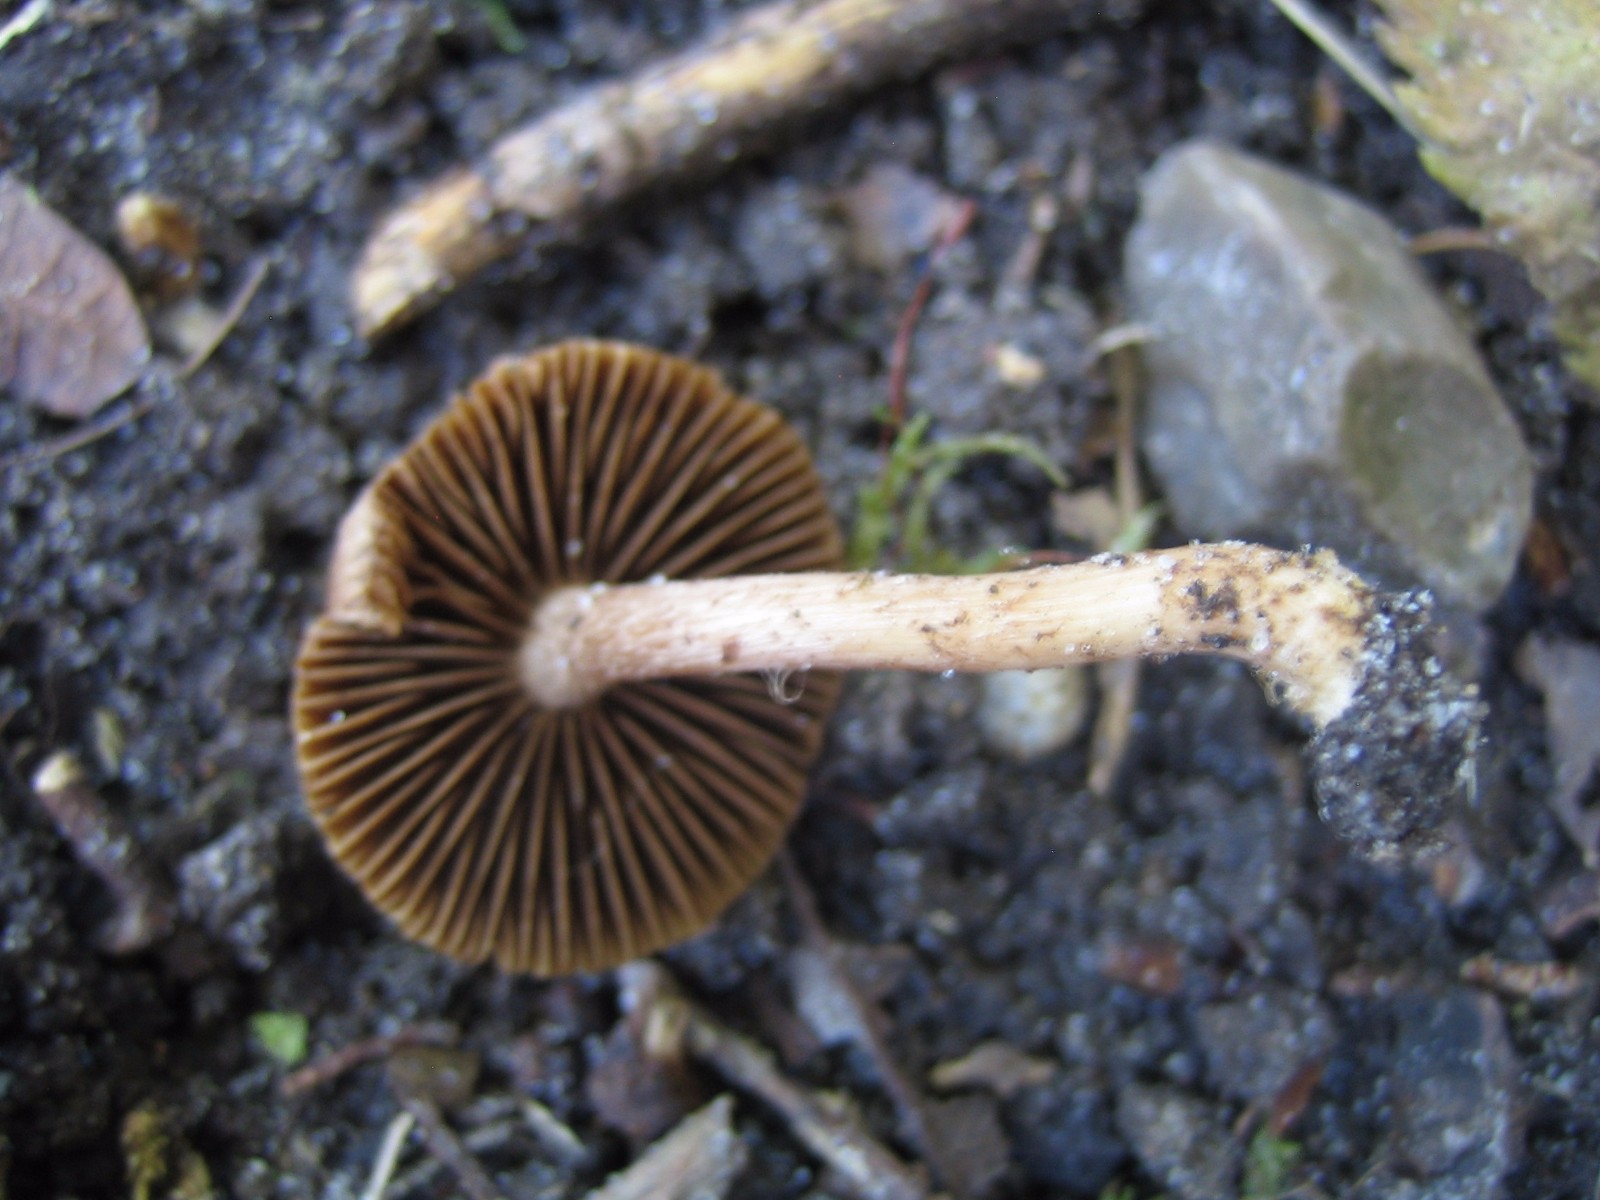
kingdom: Fungi
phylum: Basidiomycota
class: Agaricomycetes
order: Agaricales
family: Inocybaceae
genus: Inocybe
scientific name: Inocybe
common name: trævlhat
